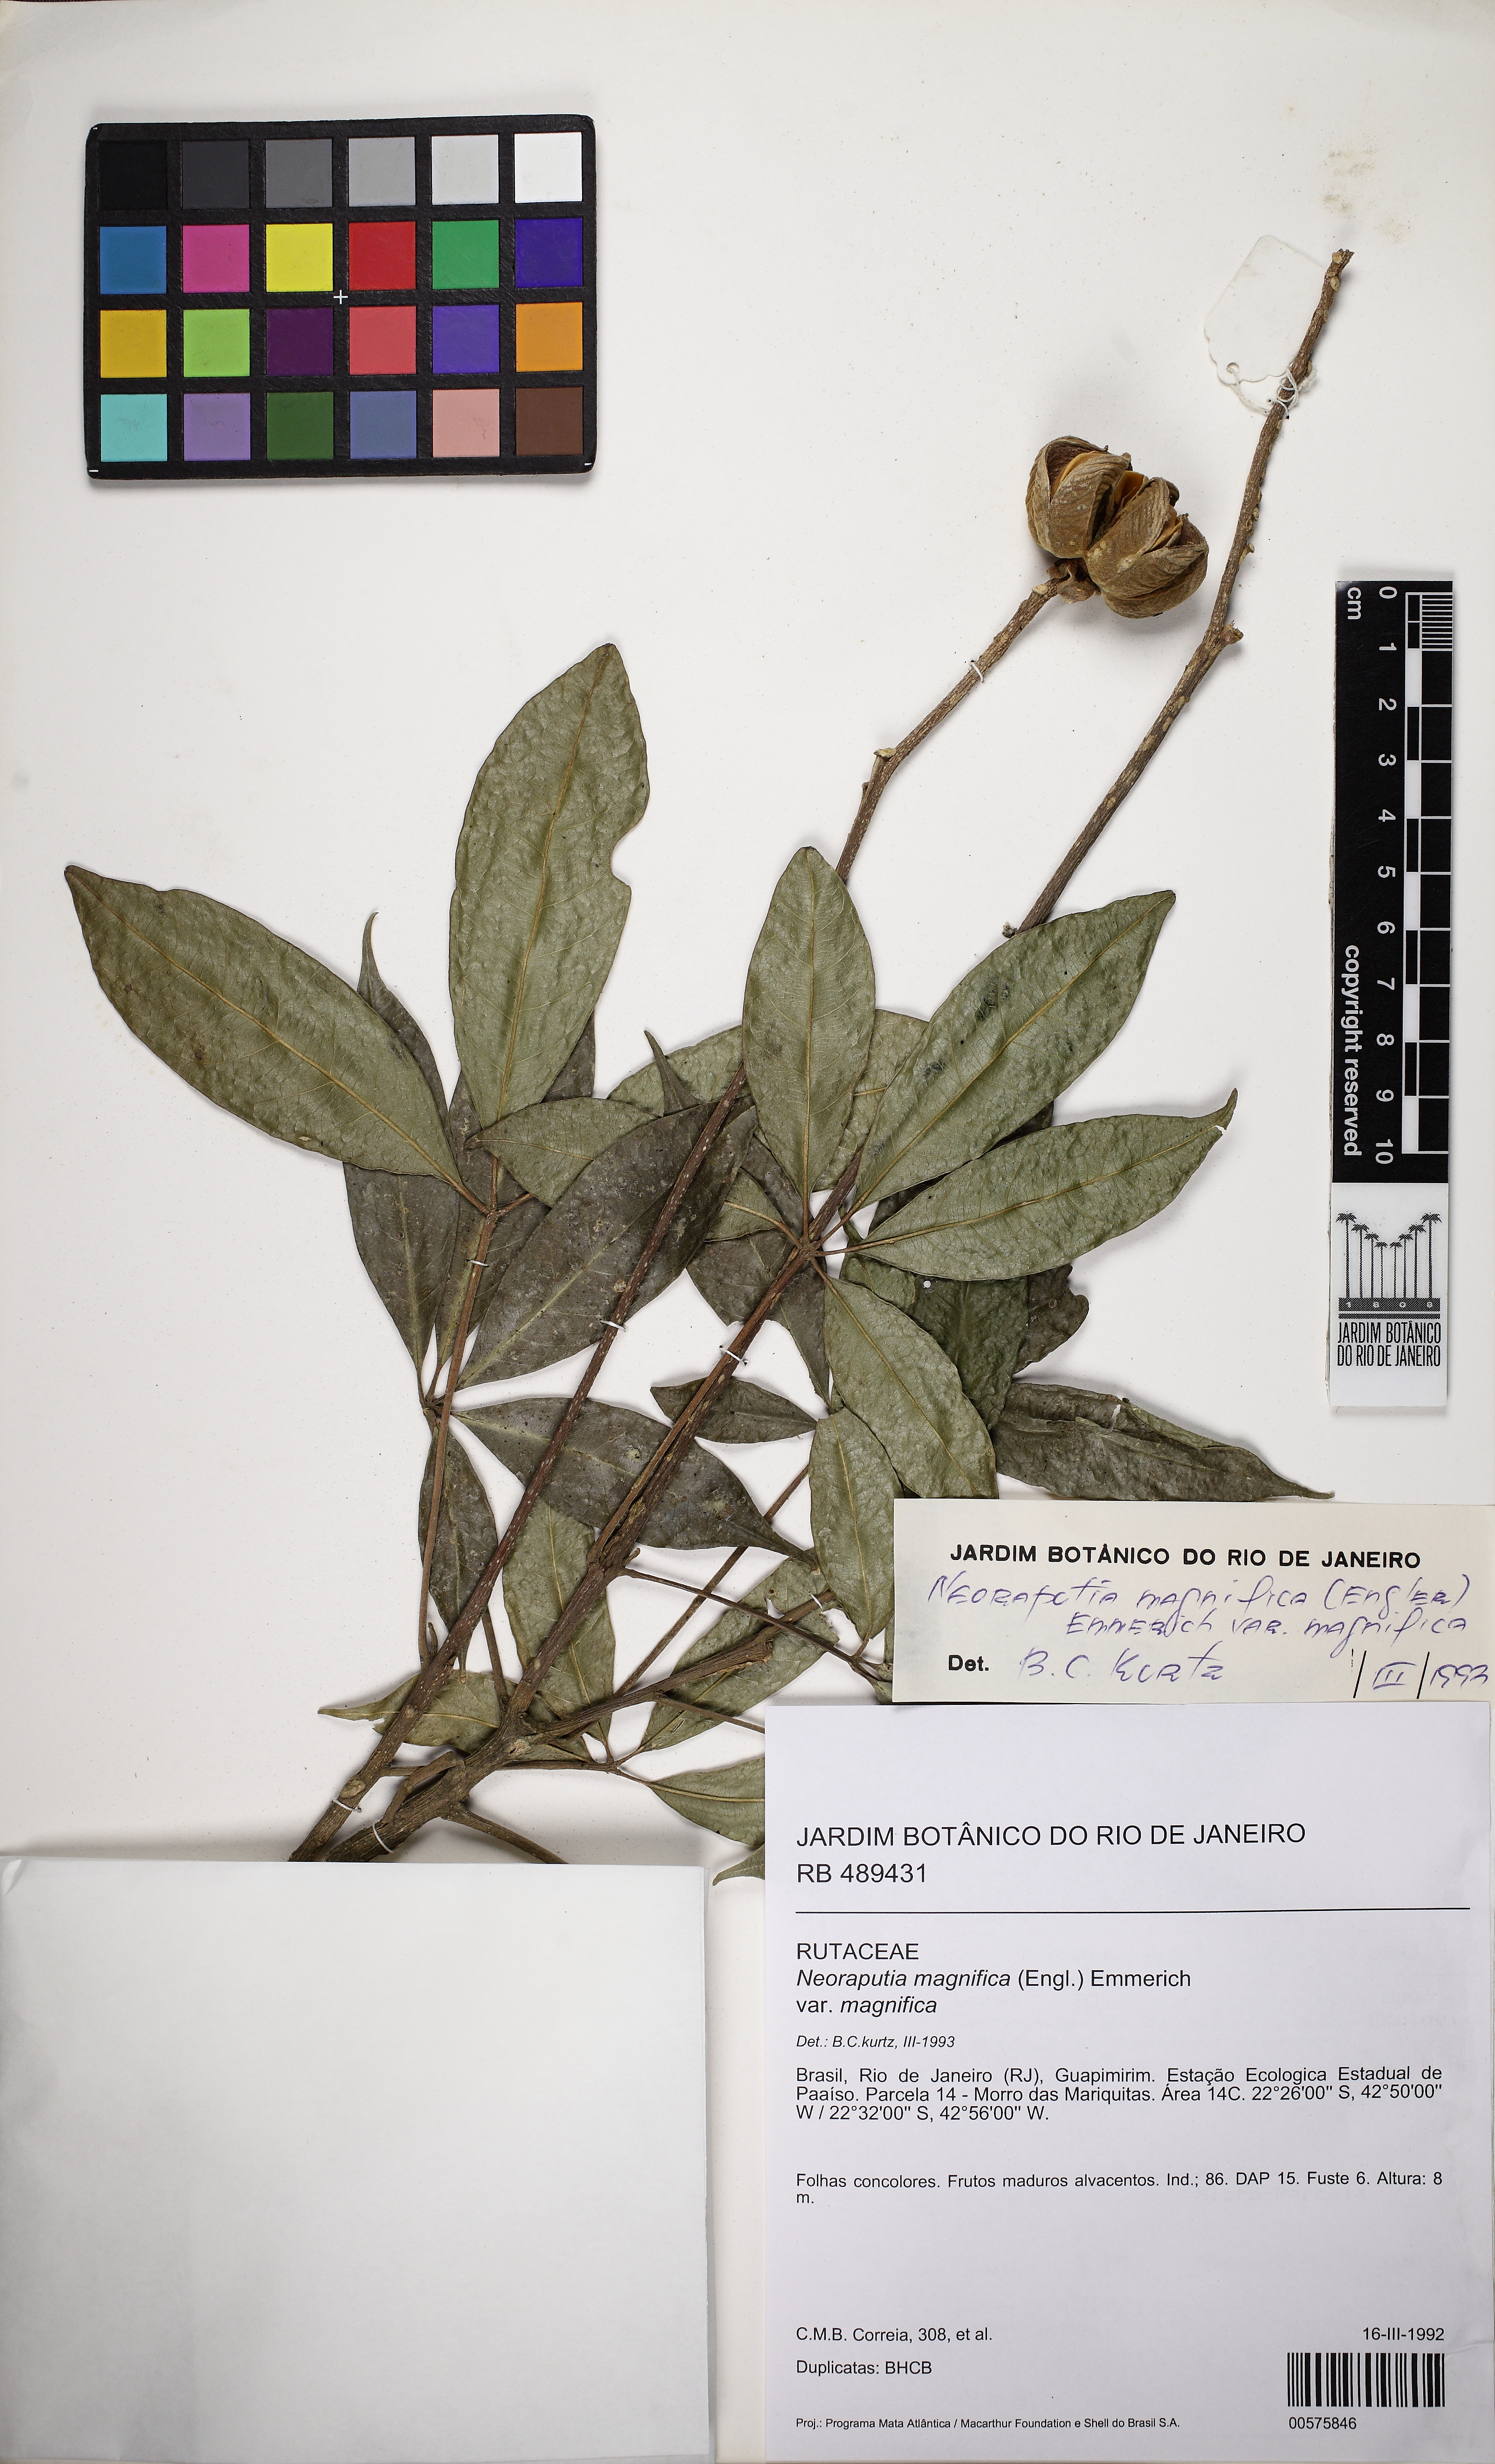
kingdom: Plantae
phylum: Tracheophyta
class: Magnoliopsida
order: Sapindales
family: Rutaceae
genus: Neoraputia
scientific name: Neoraputia magnifica
